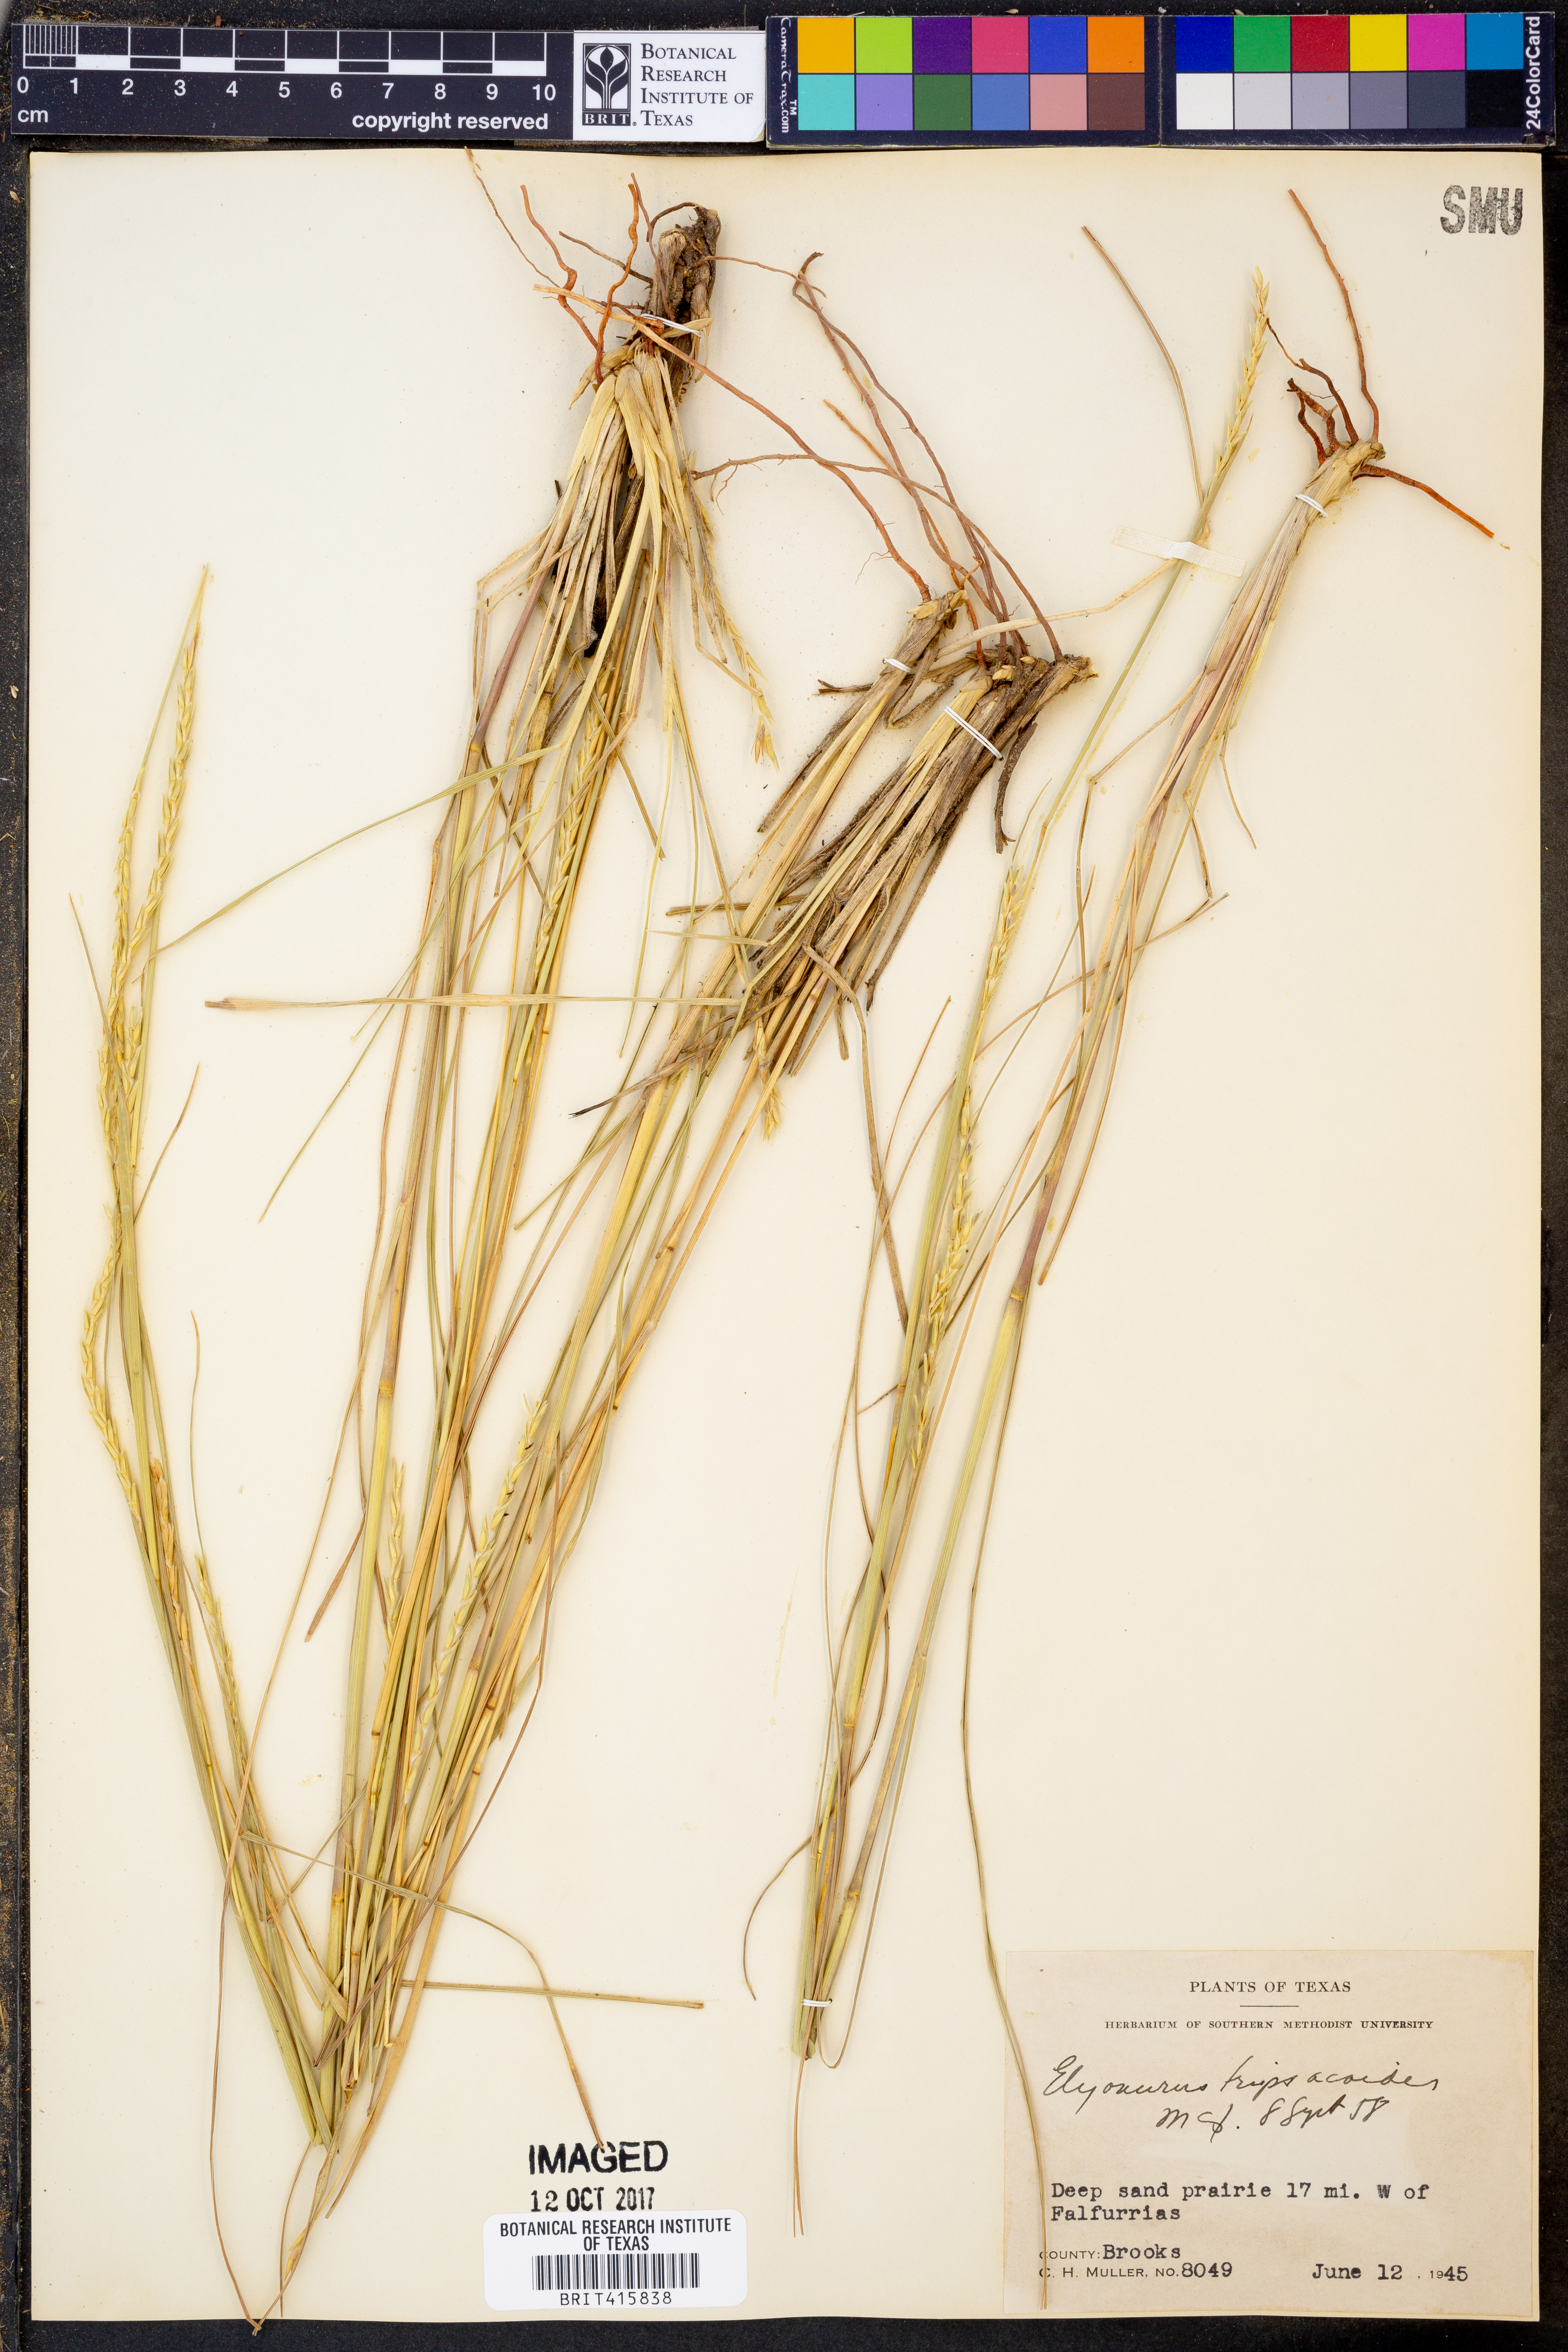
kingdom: Plantae
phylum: Tracheophyta
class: Liliopsida
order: Poales
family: Poaceae
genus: Elionurus
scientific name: Elionurus tripsacoides
